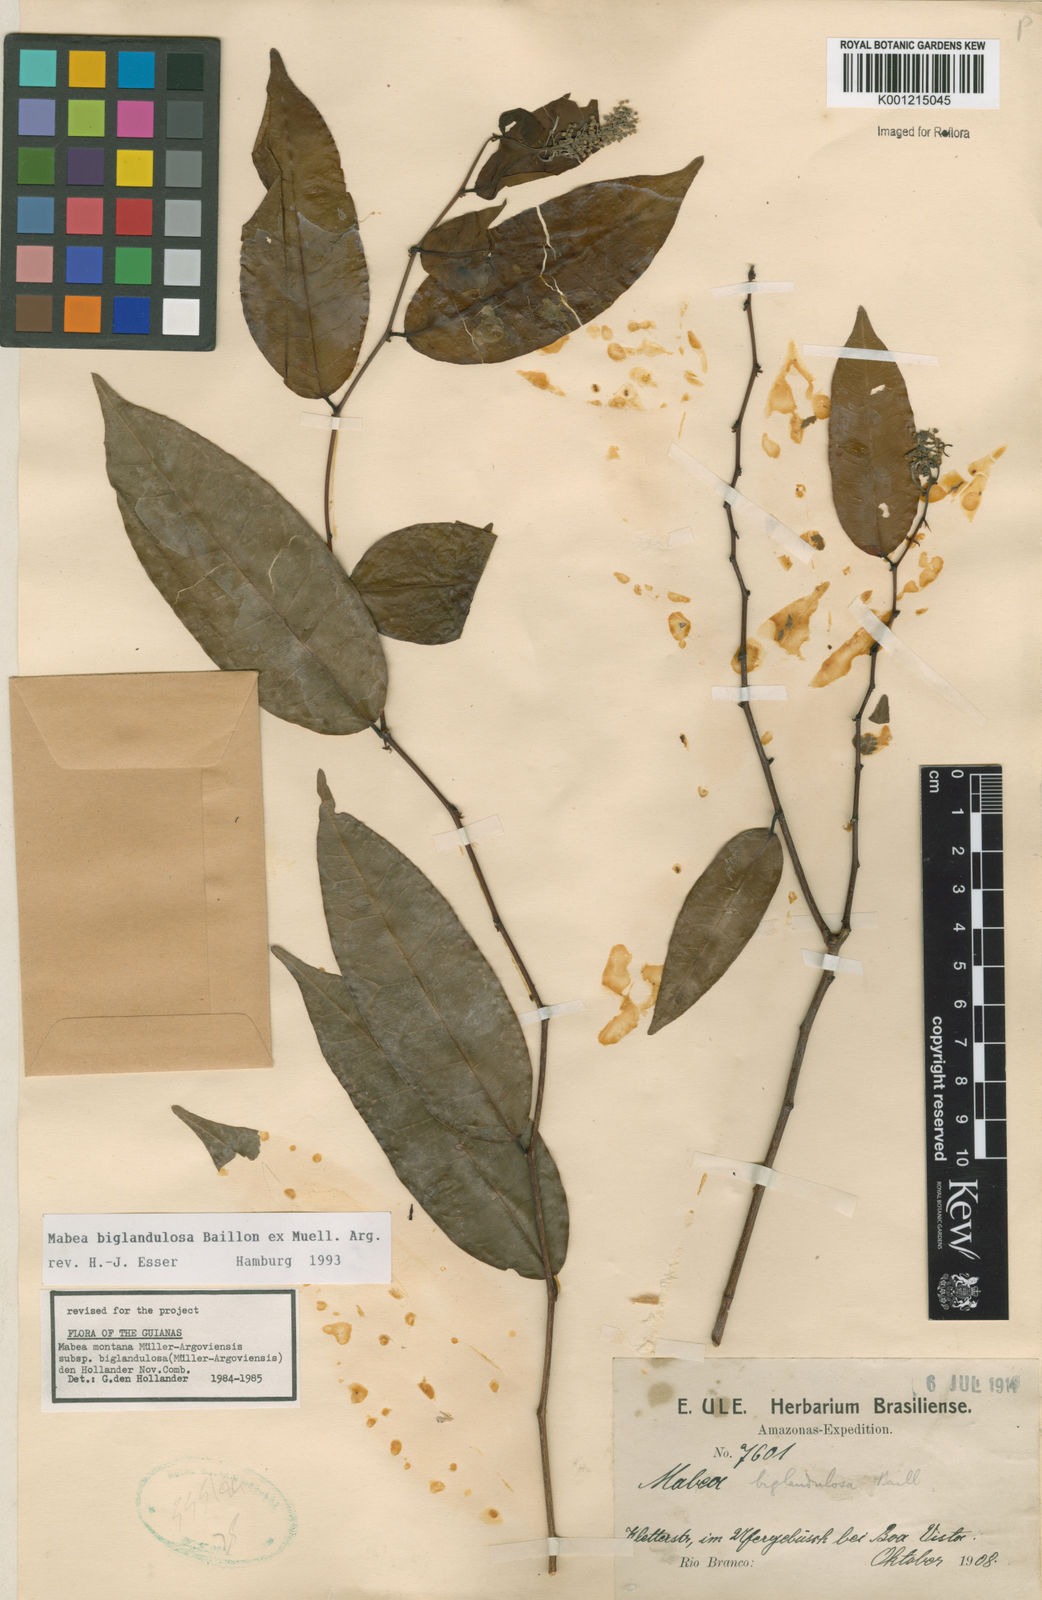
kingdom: Plantae
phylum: Tracheophyta
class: Magnoliopsida
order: Malpighiales
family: Euphorbiaceae
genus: Mabea
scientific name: Mabea
